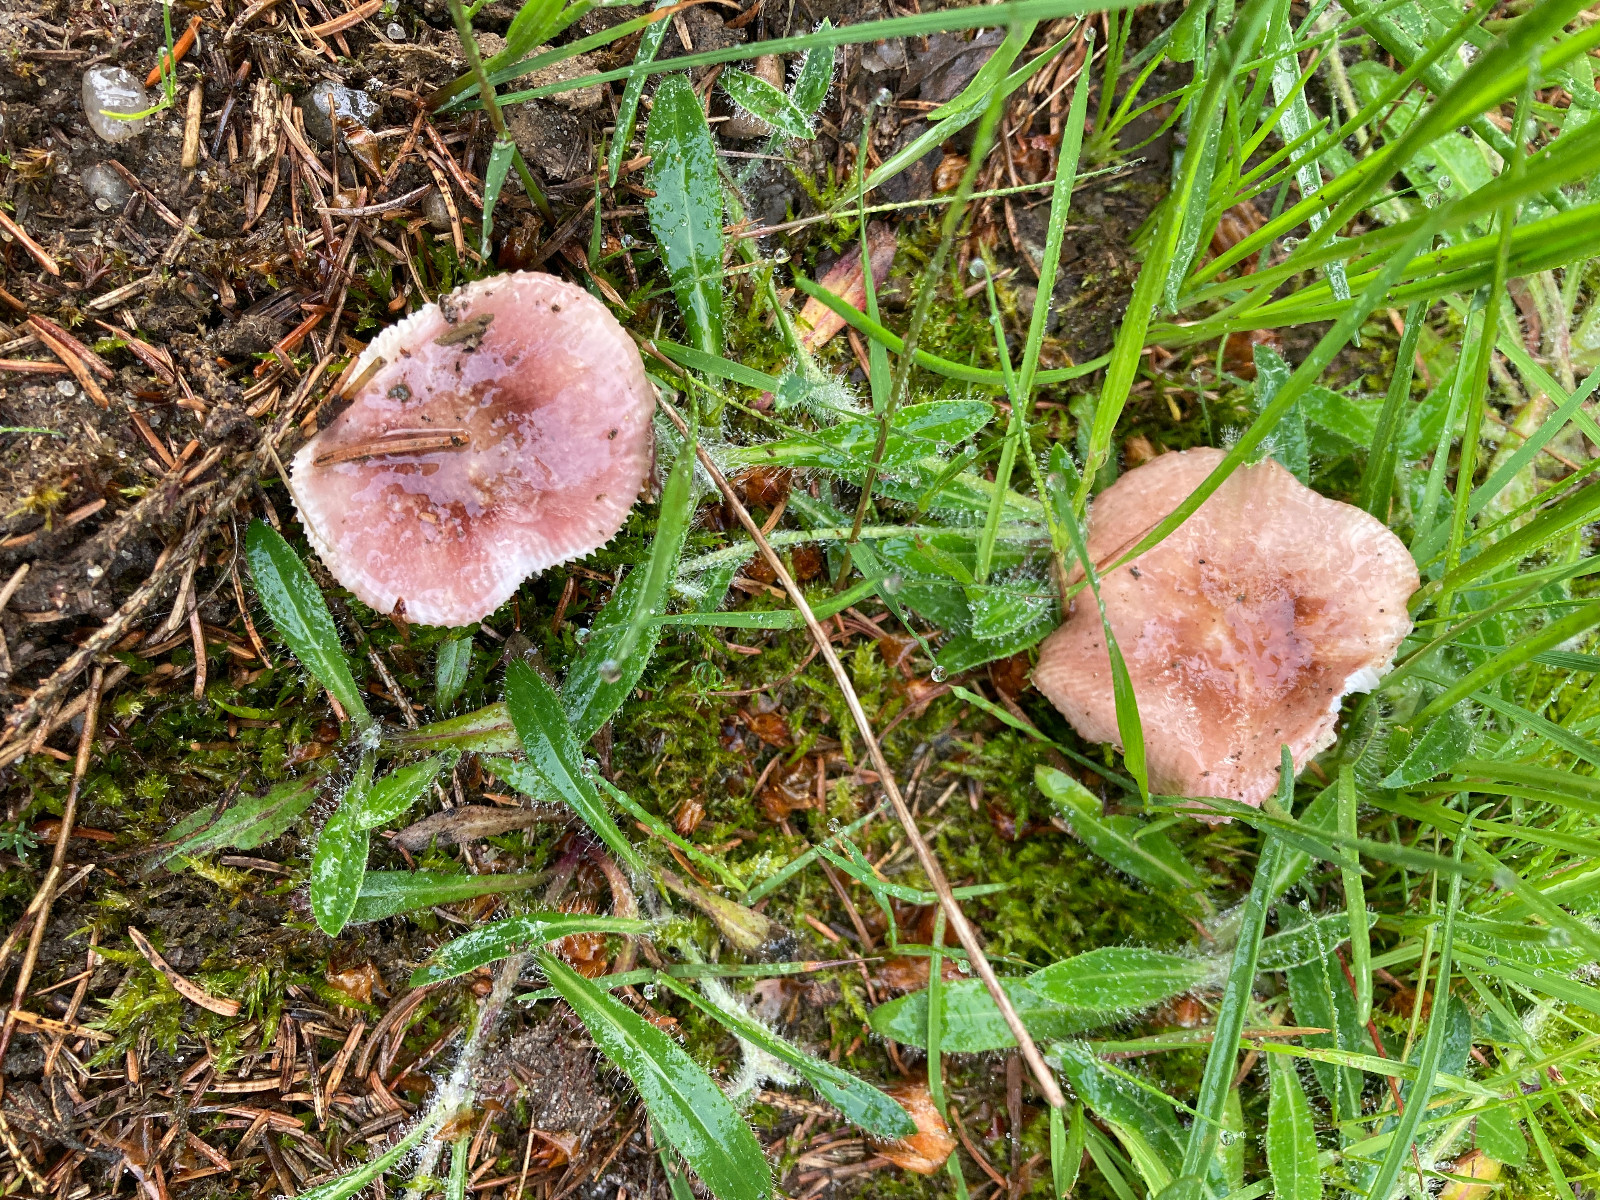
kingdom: Fungi
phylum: Basidiomycota
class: Agaricomycetes
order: Russulales
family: Russulaceae
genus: Russula
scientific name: Russula nauseosa
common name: spinkel skørhat
